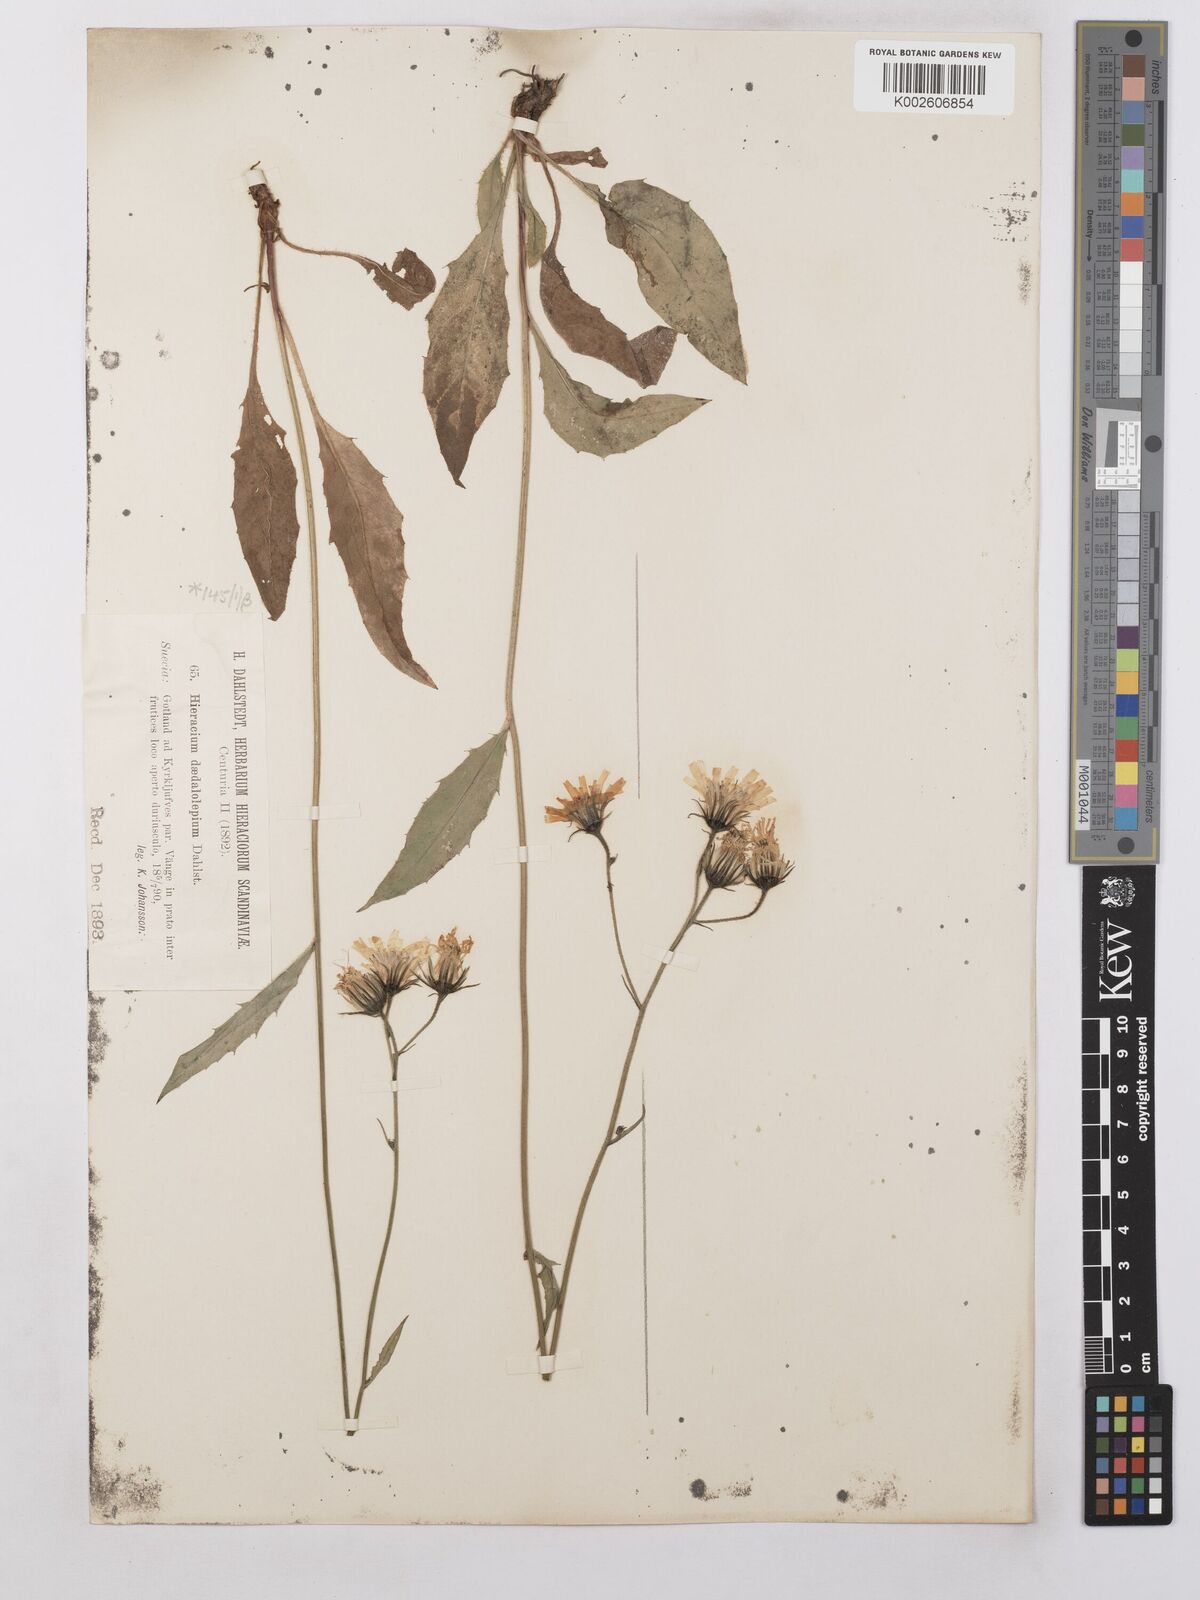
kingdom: Plantae
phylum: Tracheophyta
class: Magnoliopsida
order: Asterales
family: Asteraceae
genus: Hieracium
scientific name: Hieracium levicaule
